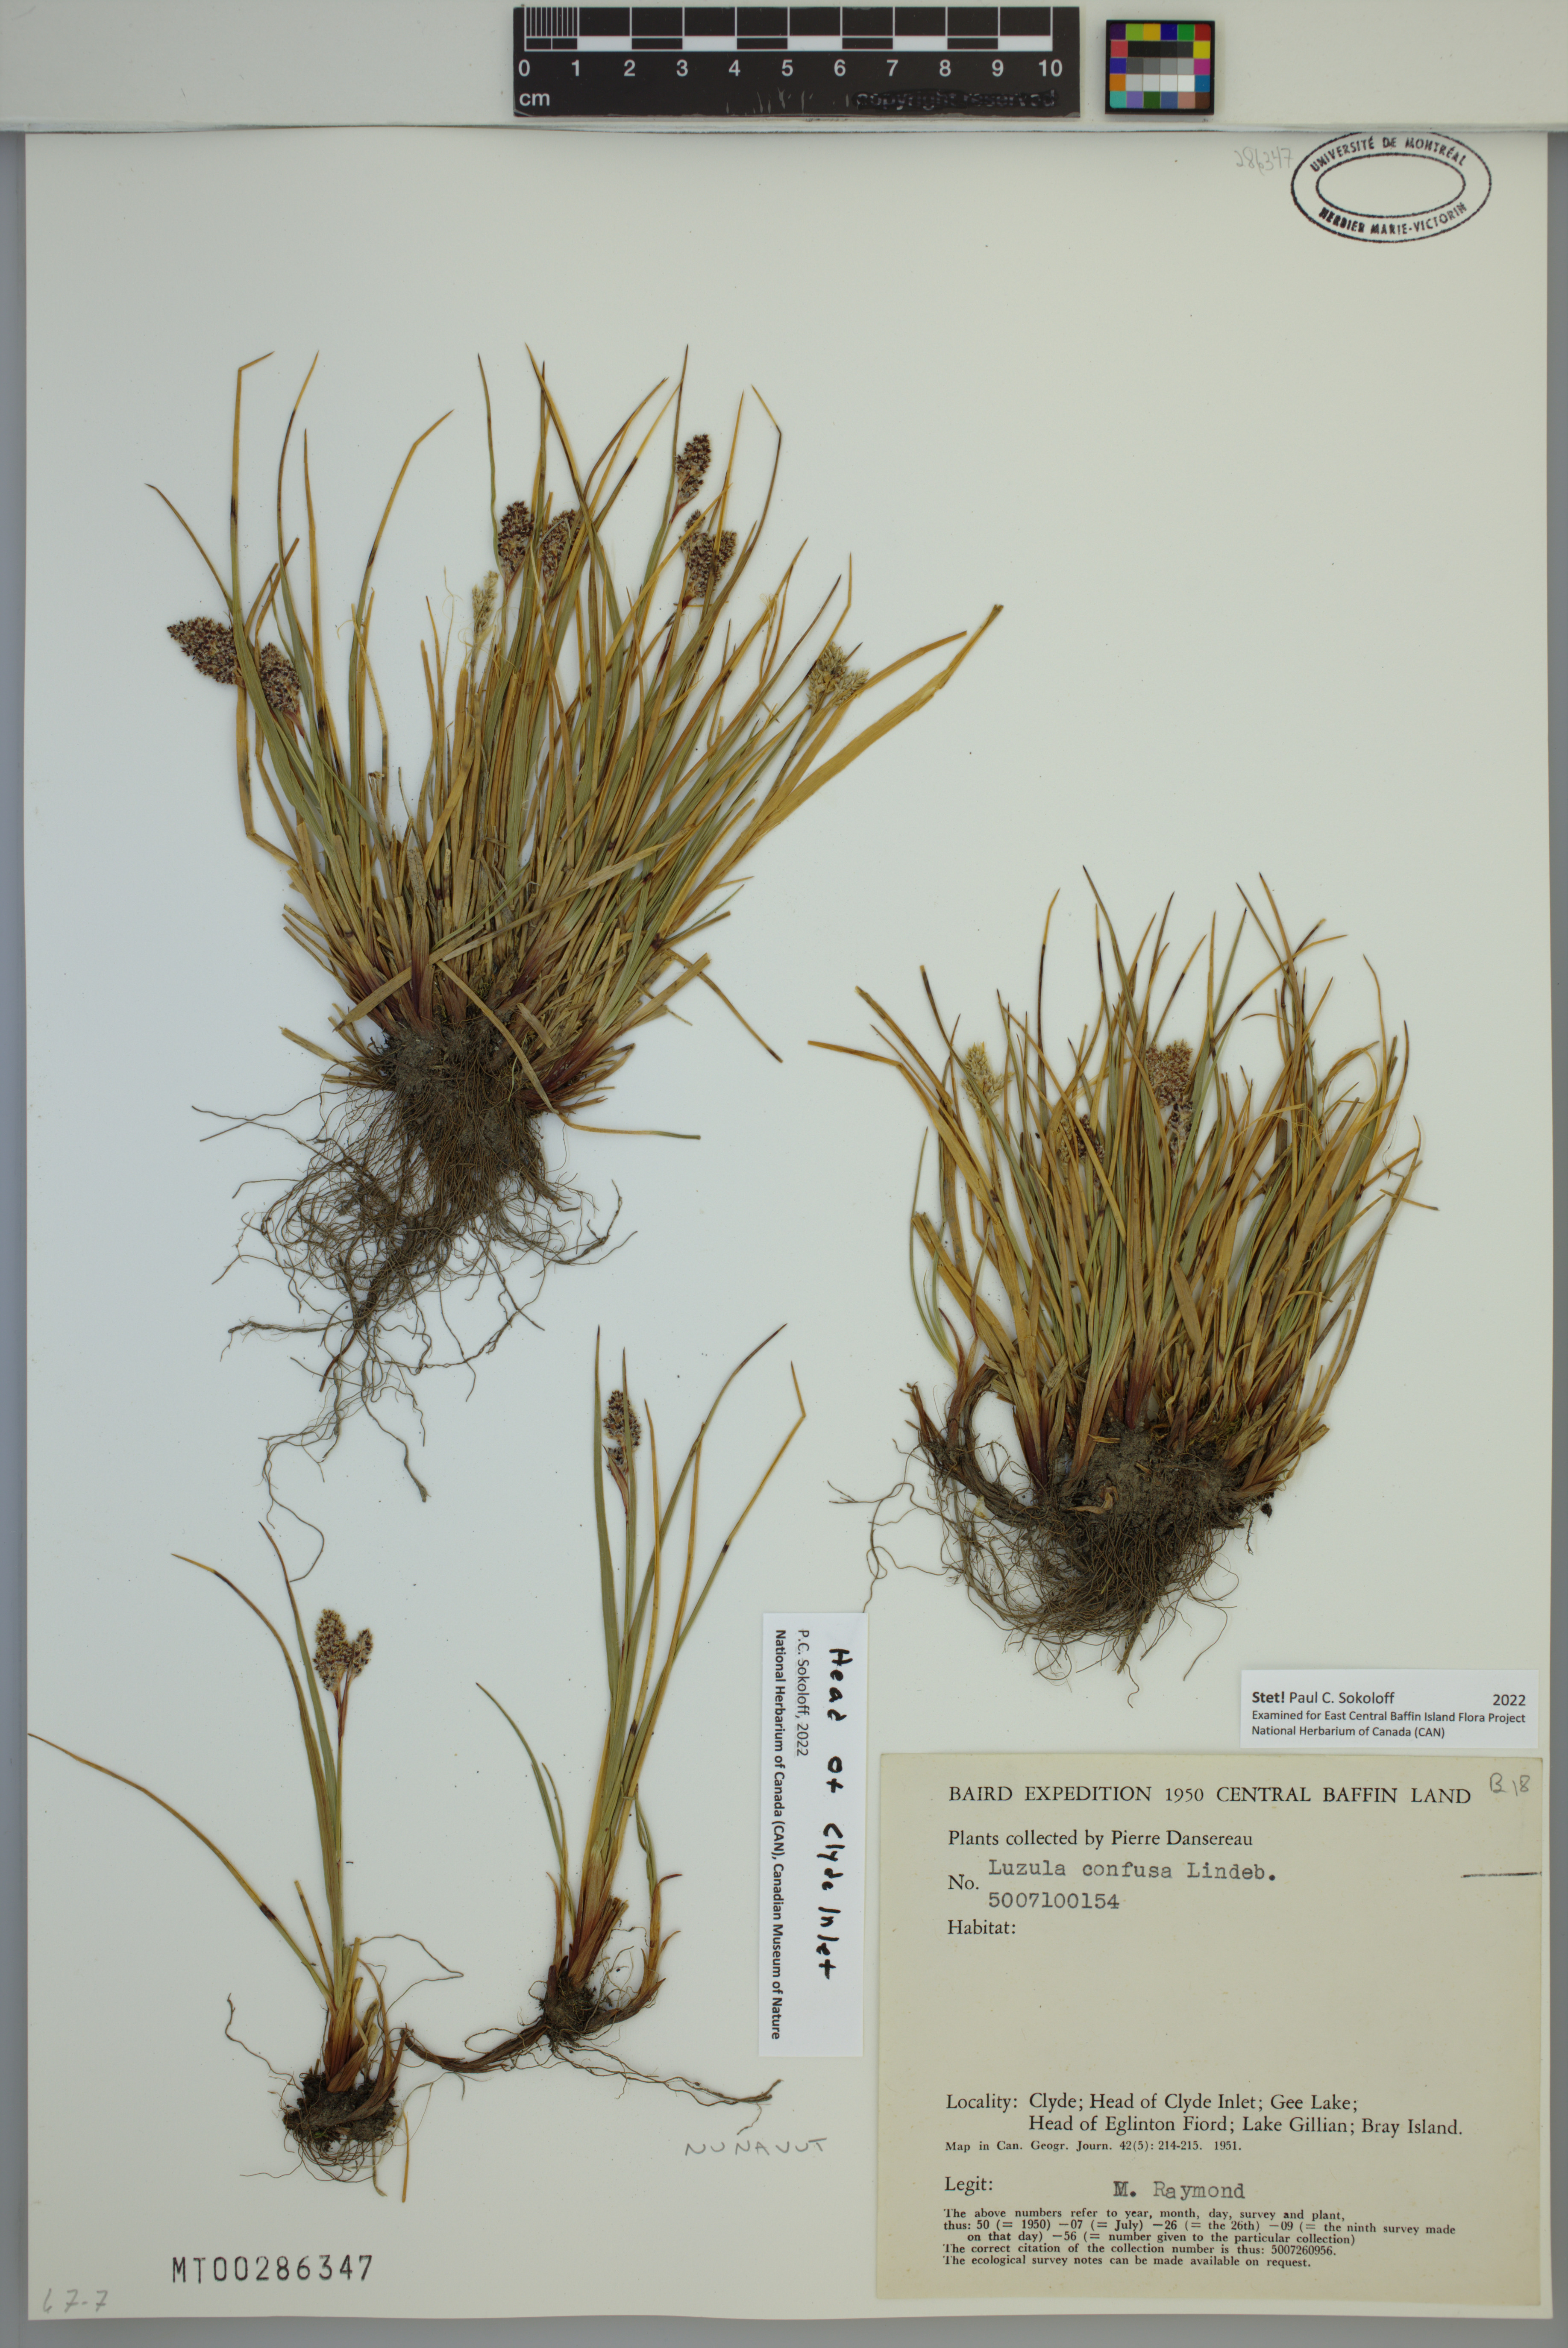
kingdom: Plantae
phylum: Tracheophyta
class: Liliopsida
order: Poales
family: Juncaceae
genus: Luzula
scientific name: Luzula confusa
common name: Northern wood rush
